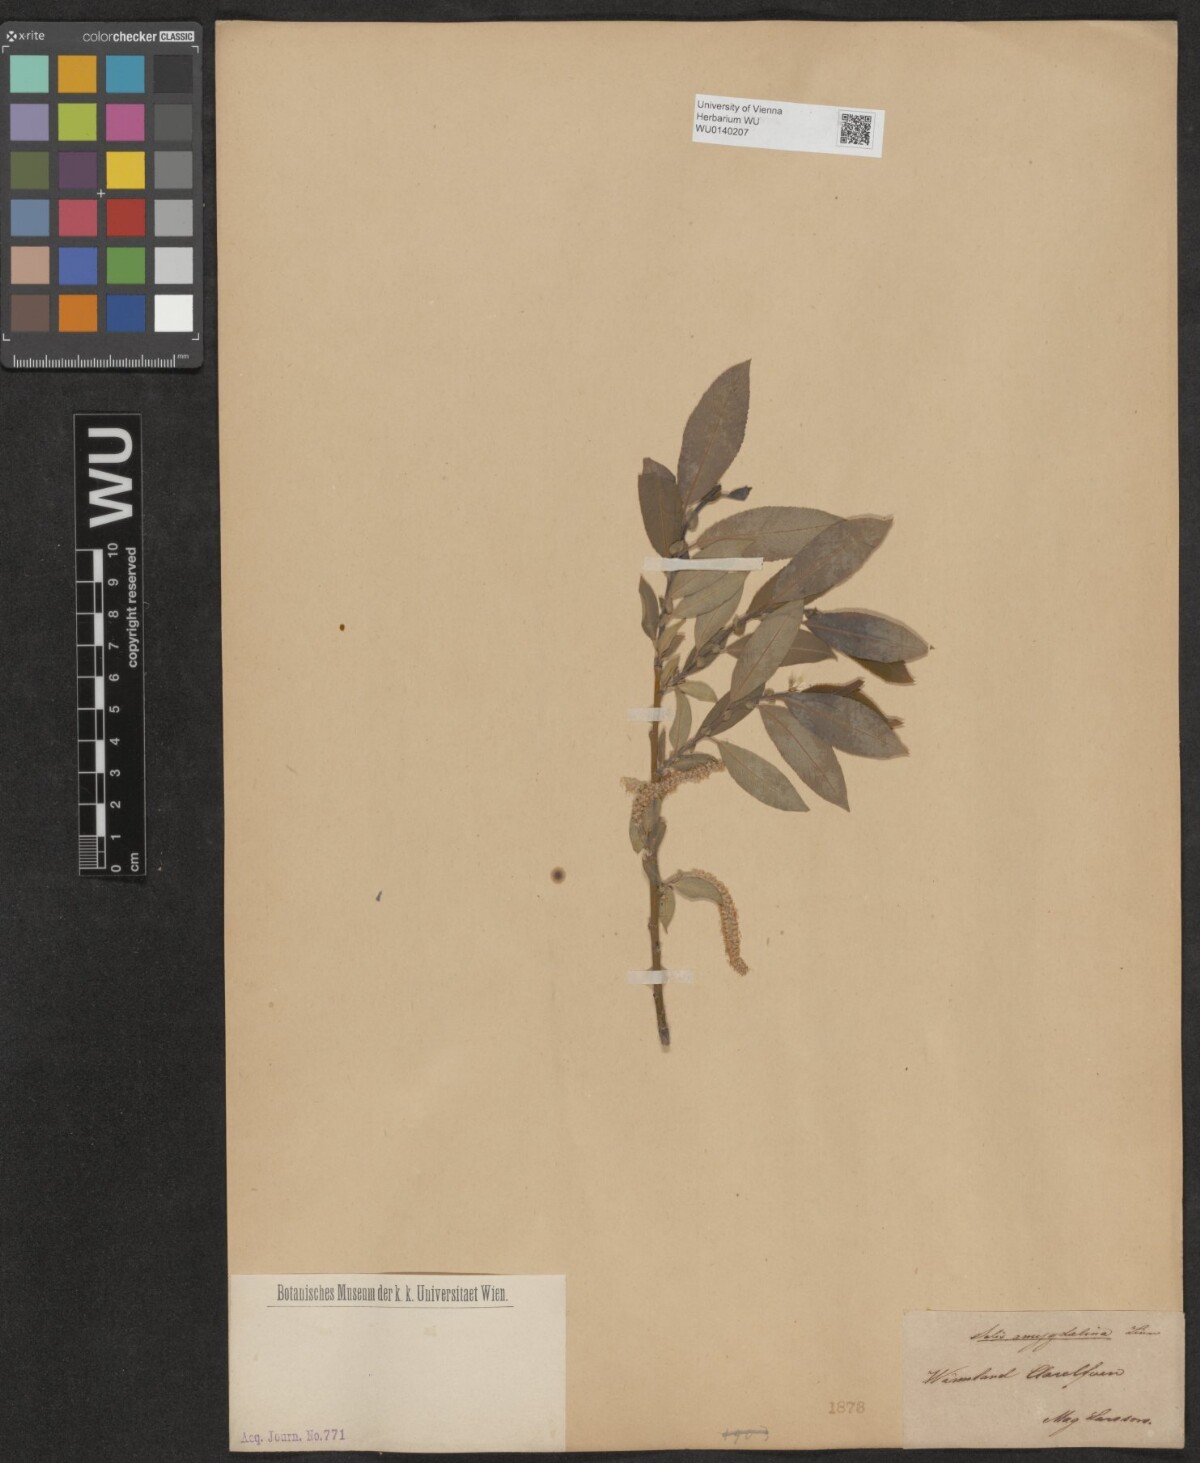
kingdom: Plantae
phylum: Tracheophyta
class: Magnoliopsida
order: Malpighiales
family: Salicaceae
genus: Salix
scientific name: Salix triandra
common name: Almond willow
